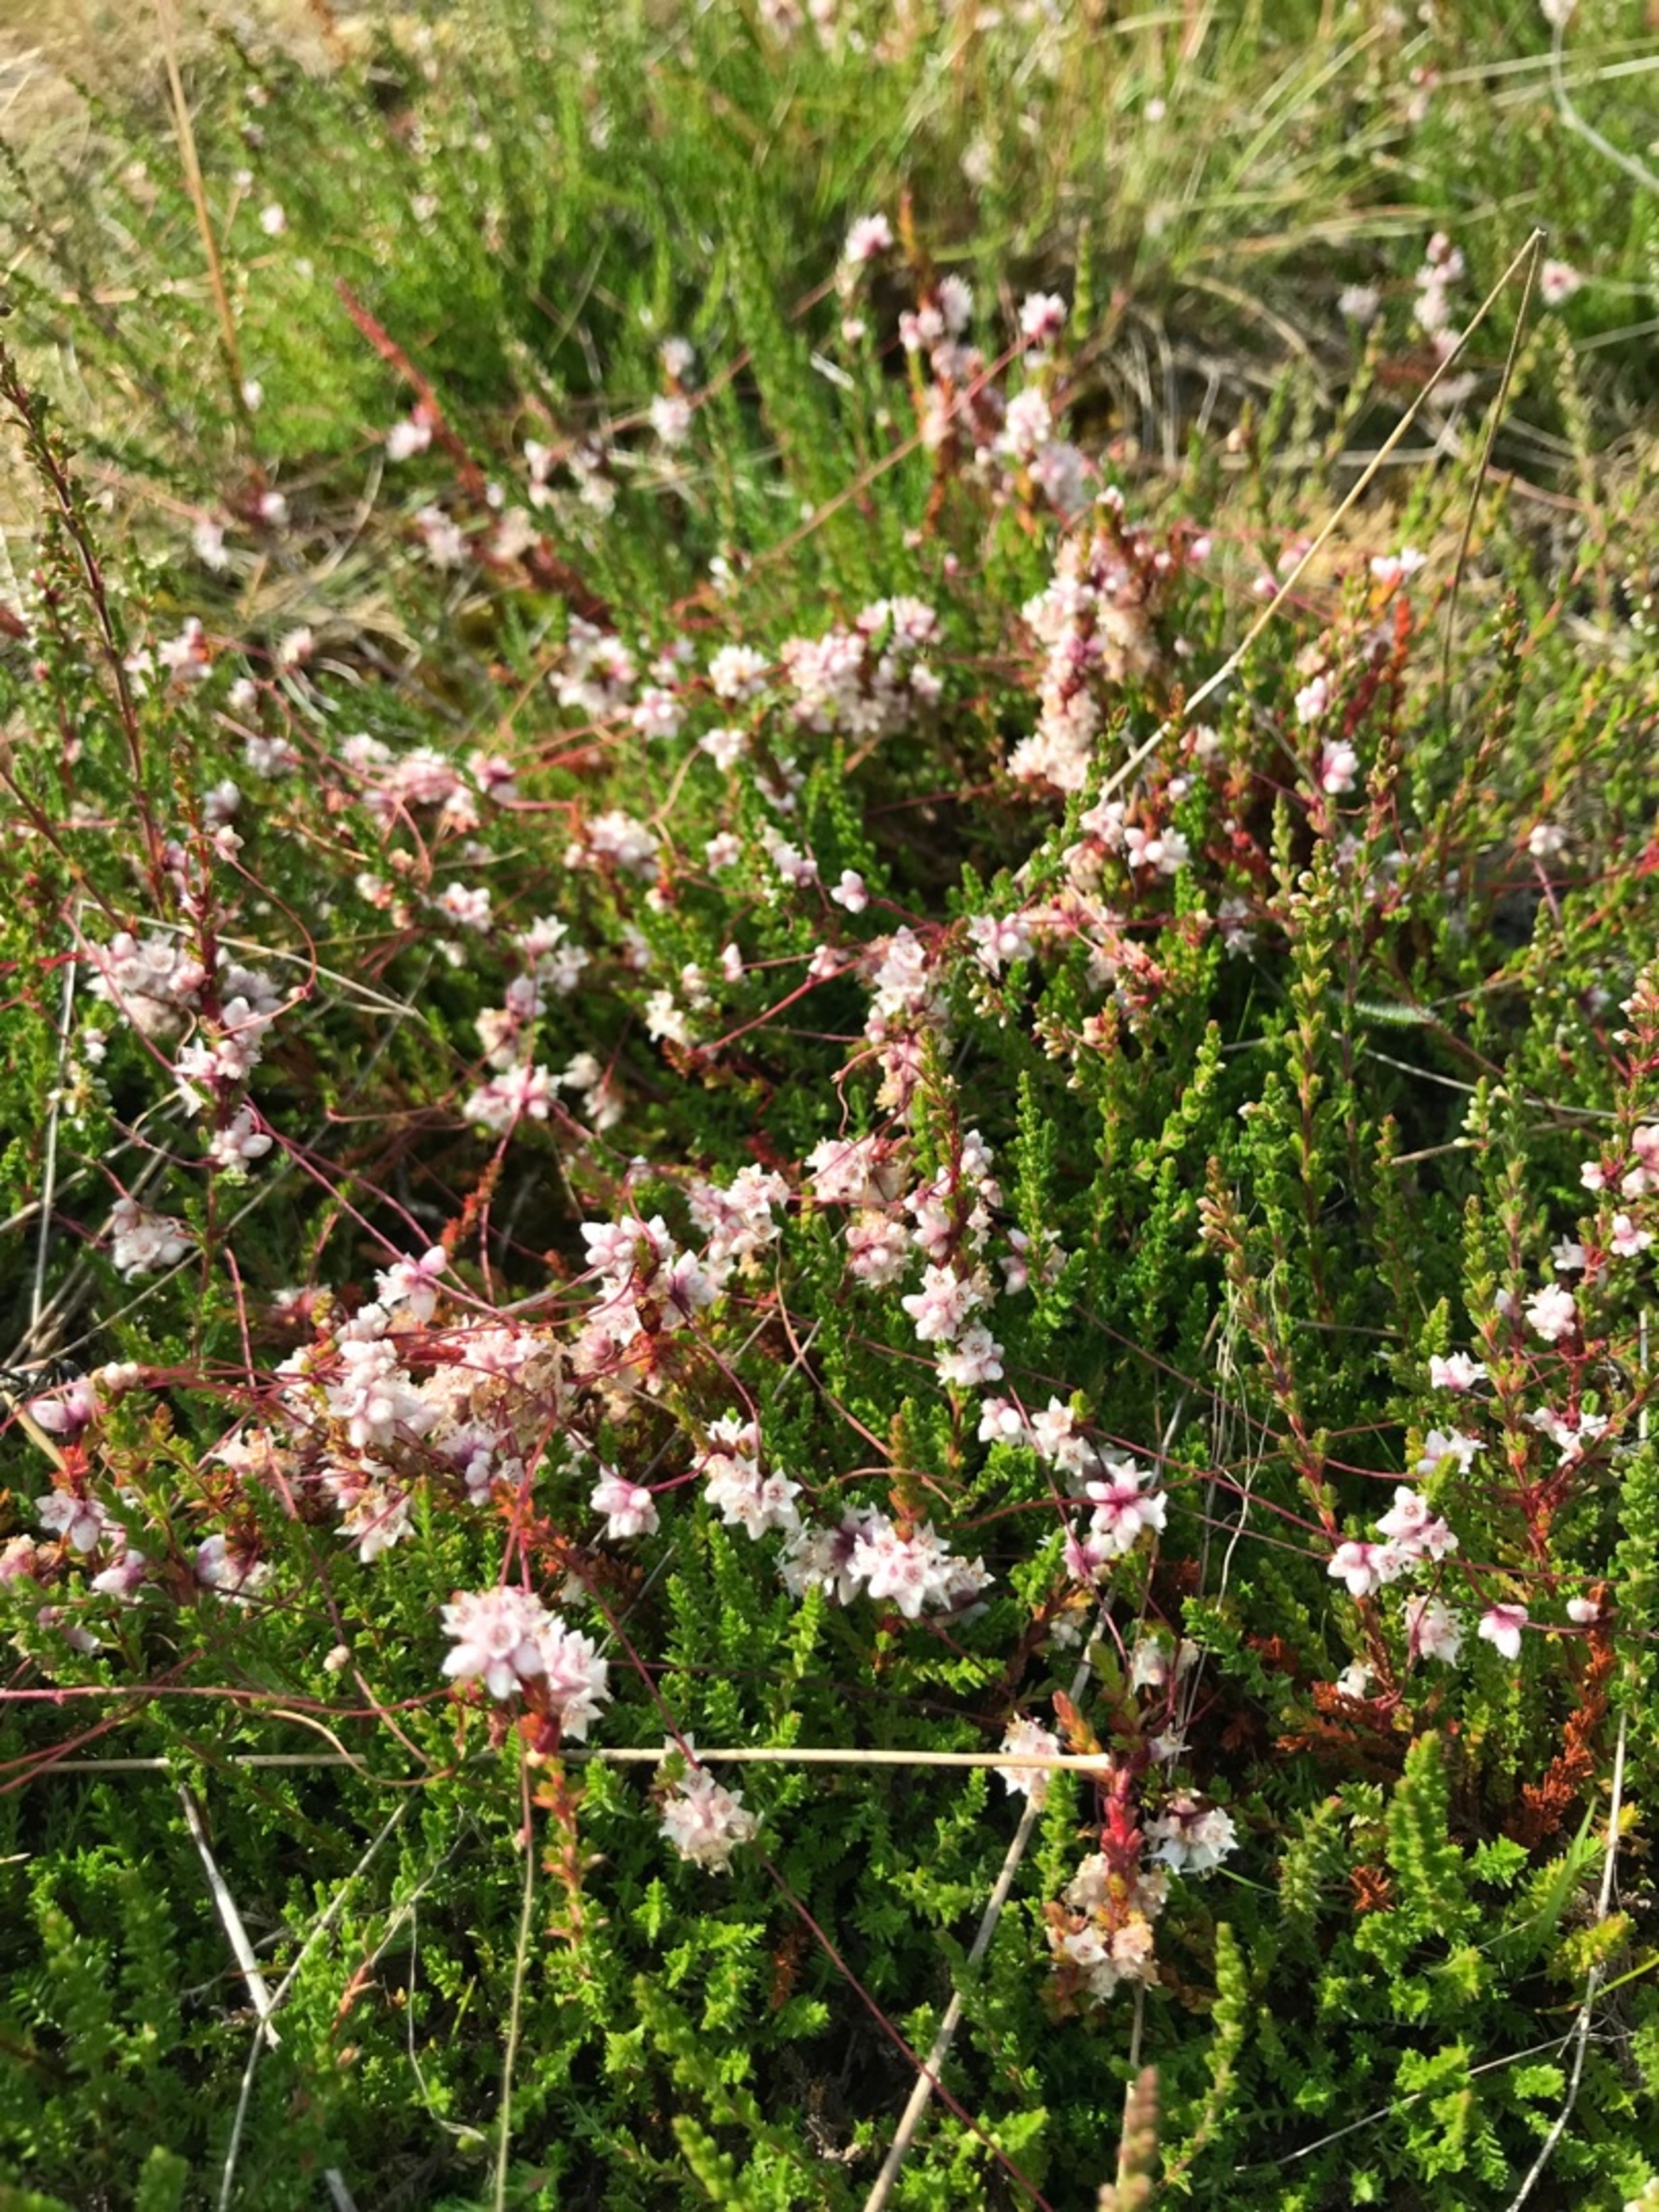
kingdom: Plantae
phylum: Tracheophyta
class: Magnoliopsida
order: Solanales
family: Convolvulaceae
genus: Cuscuta
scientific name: Cuscuta epithymum
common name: Lyng-silke
